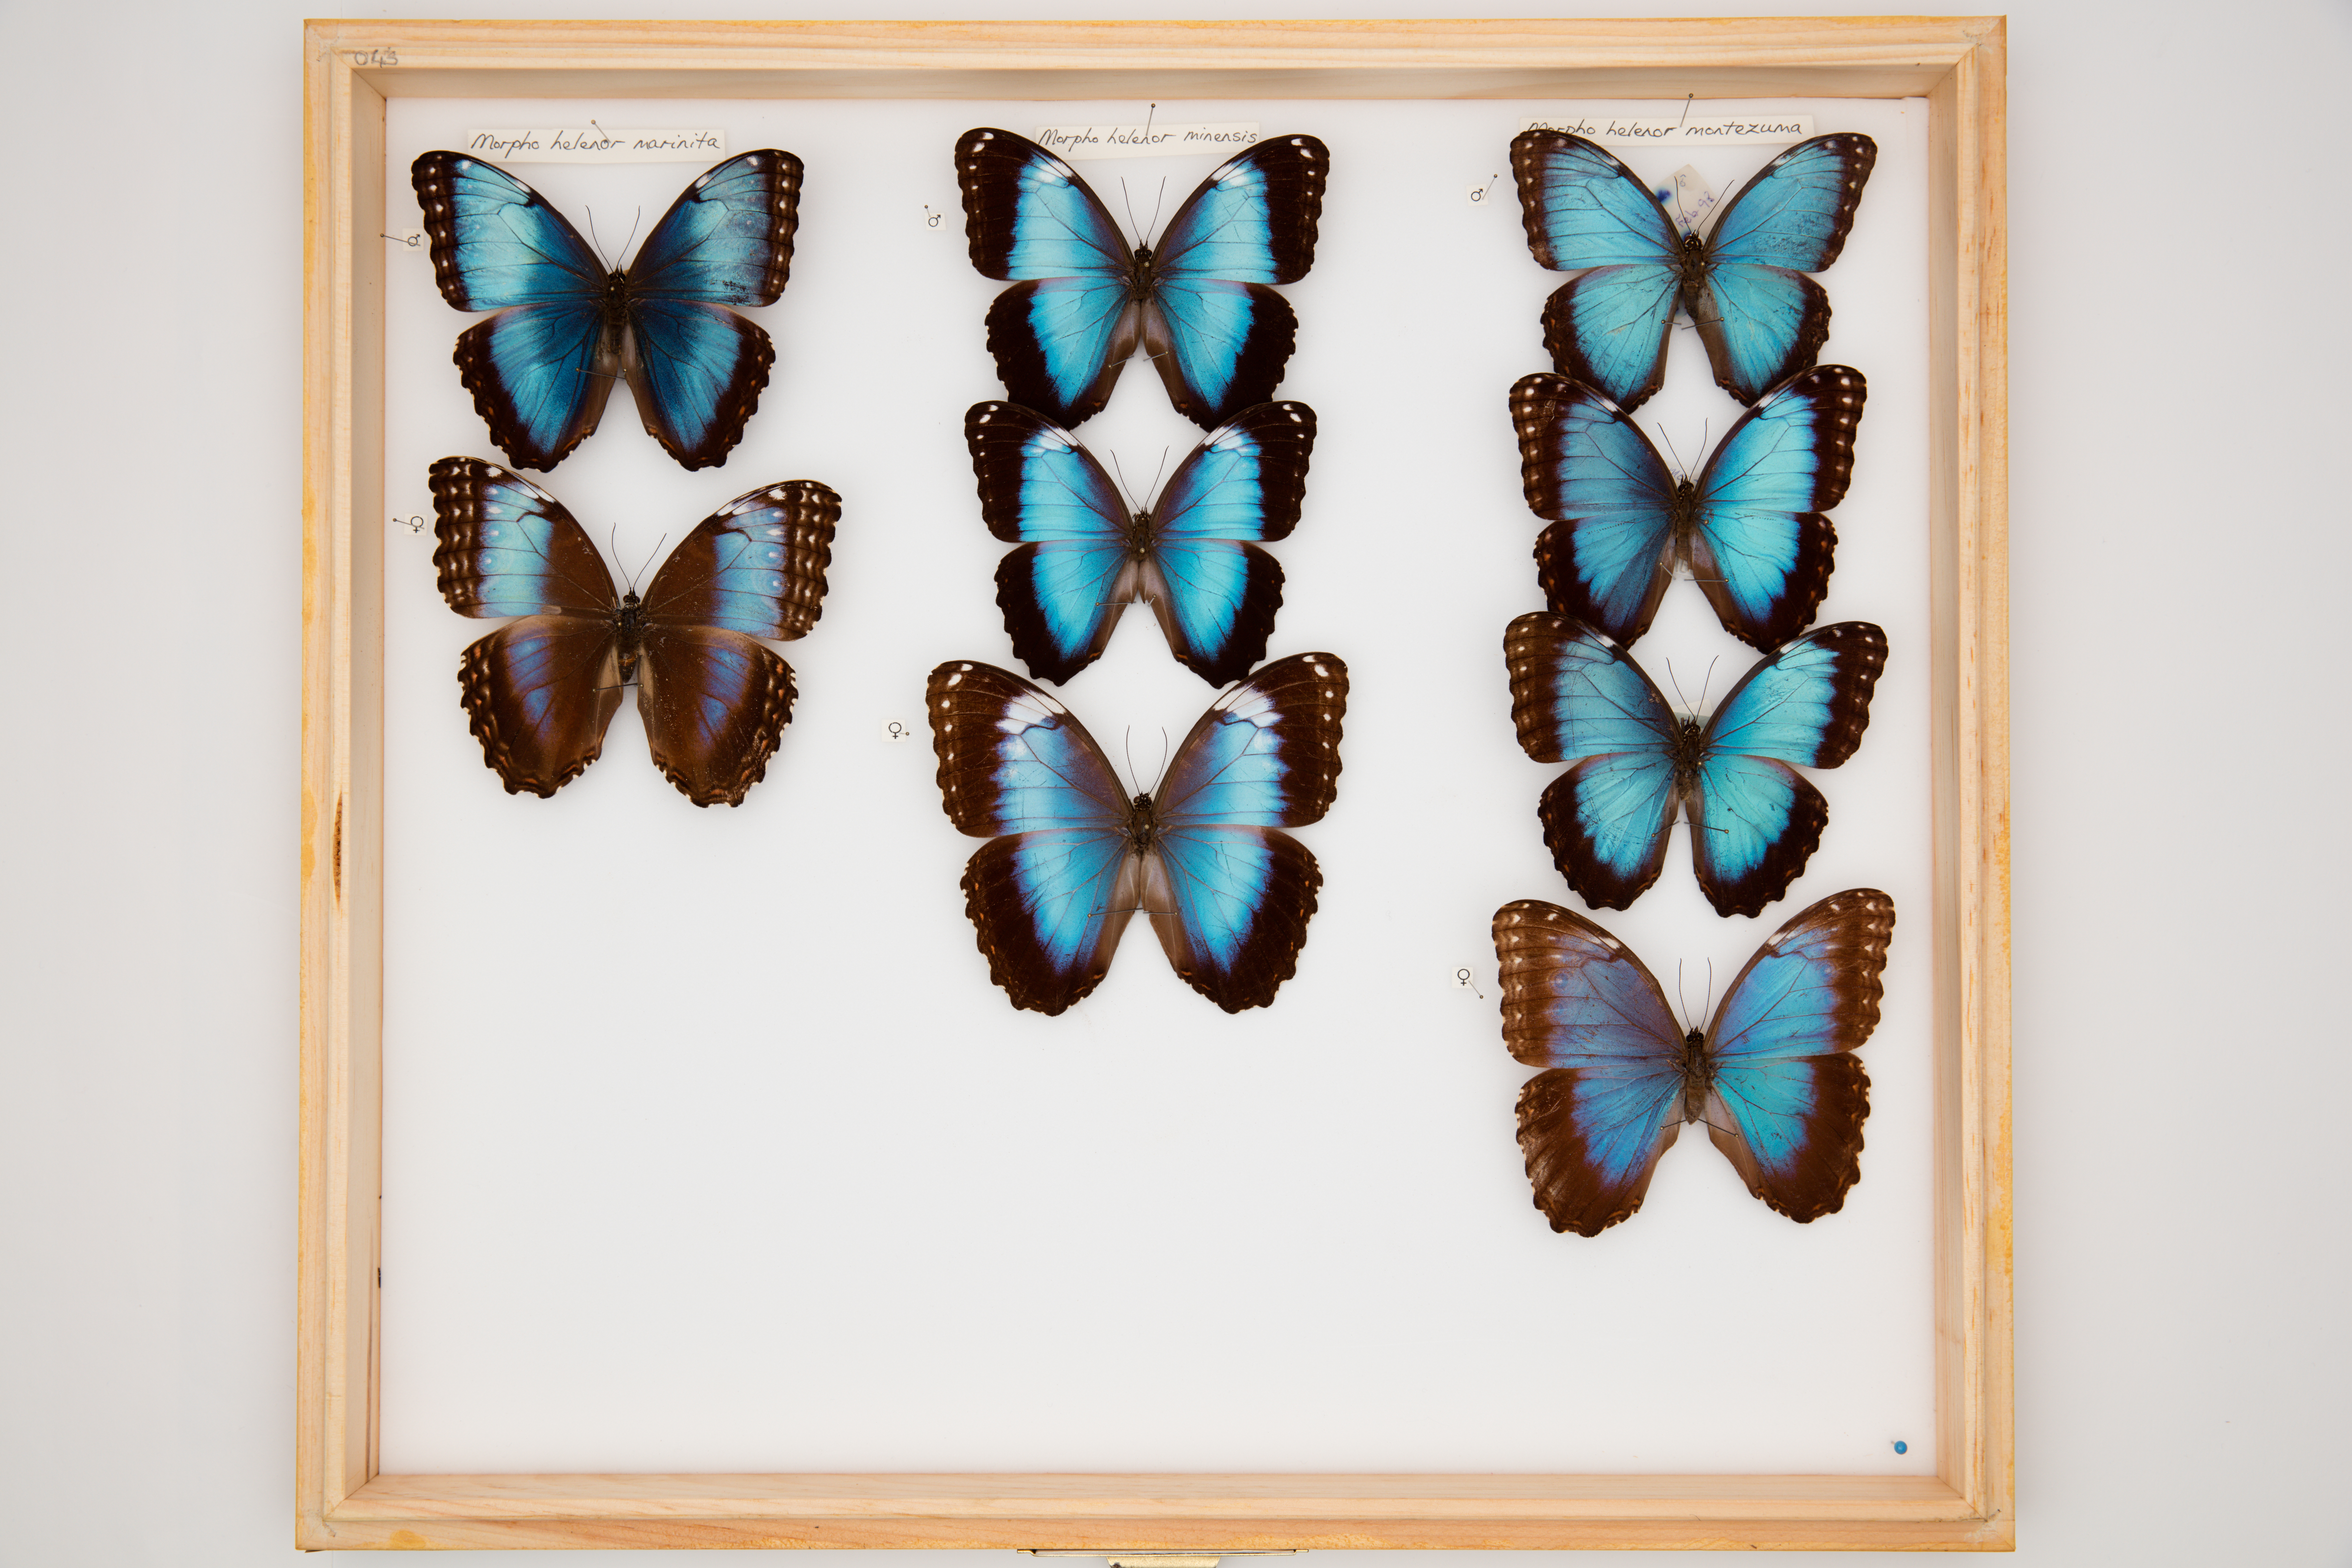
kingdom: Animalia
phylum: Arthropoda
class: Insecta
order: Lepidoptera
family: Nymphalidae
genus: Morpho
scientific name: Morpho helenor
